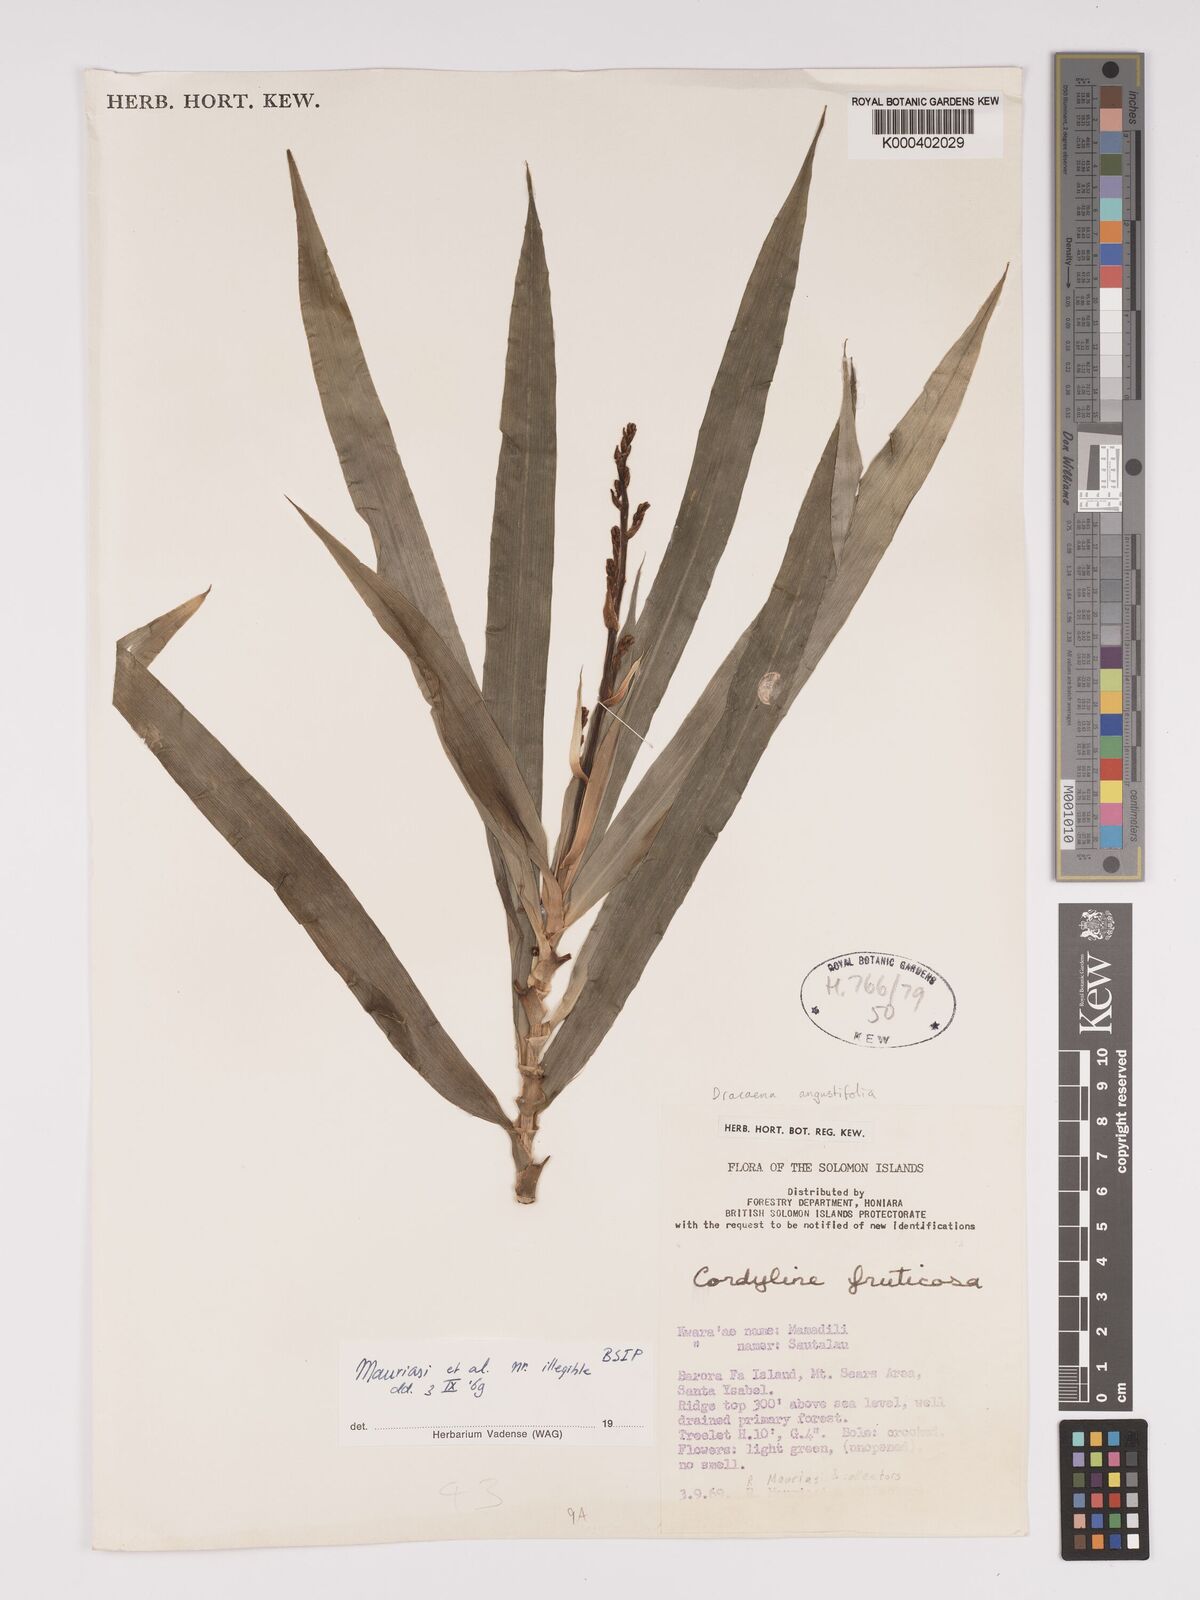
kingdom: Plantae
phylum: Tracheophyta
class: Liliopsida
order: Asparagales
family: Asparagaceae
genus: Dracaena
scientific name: Dracaena angustifolia
